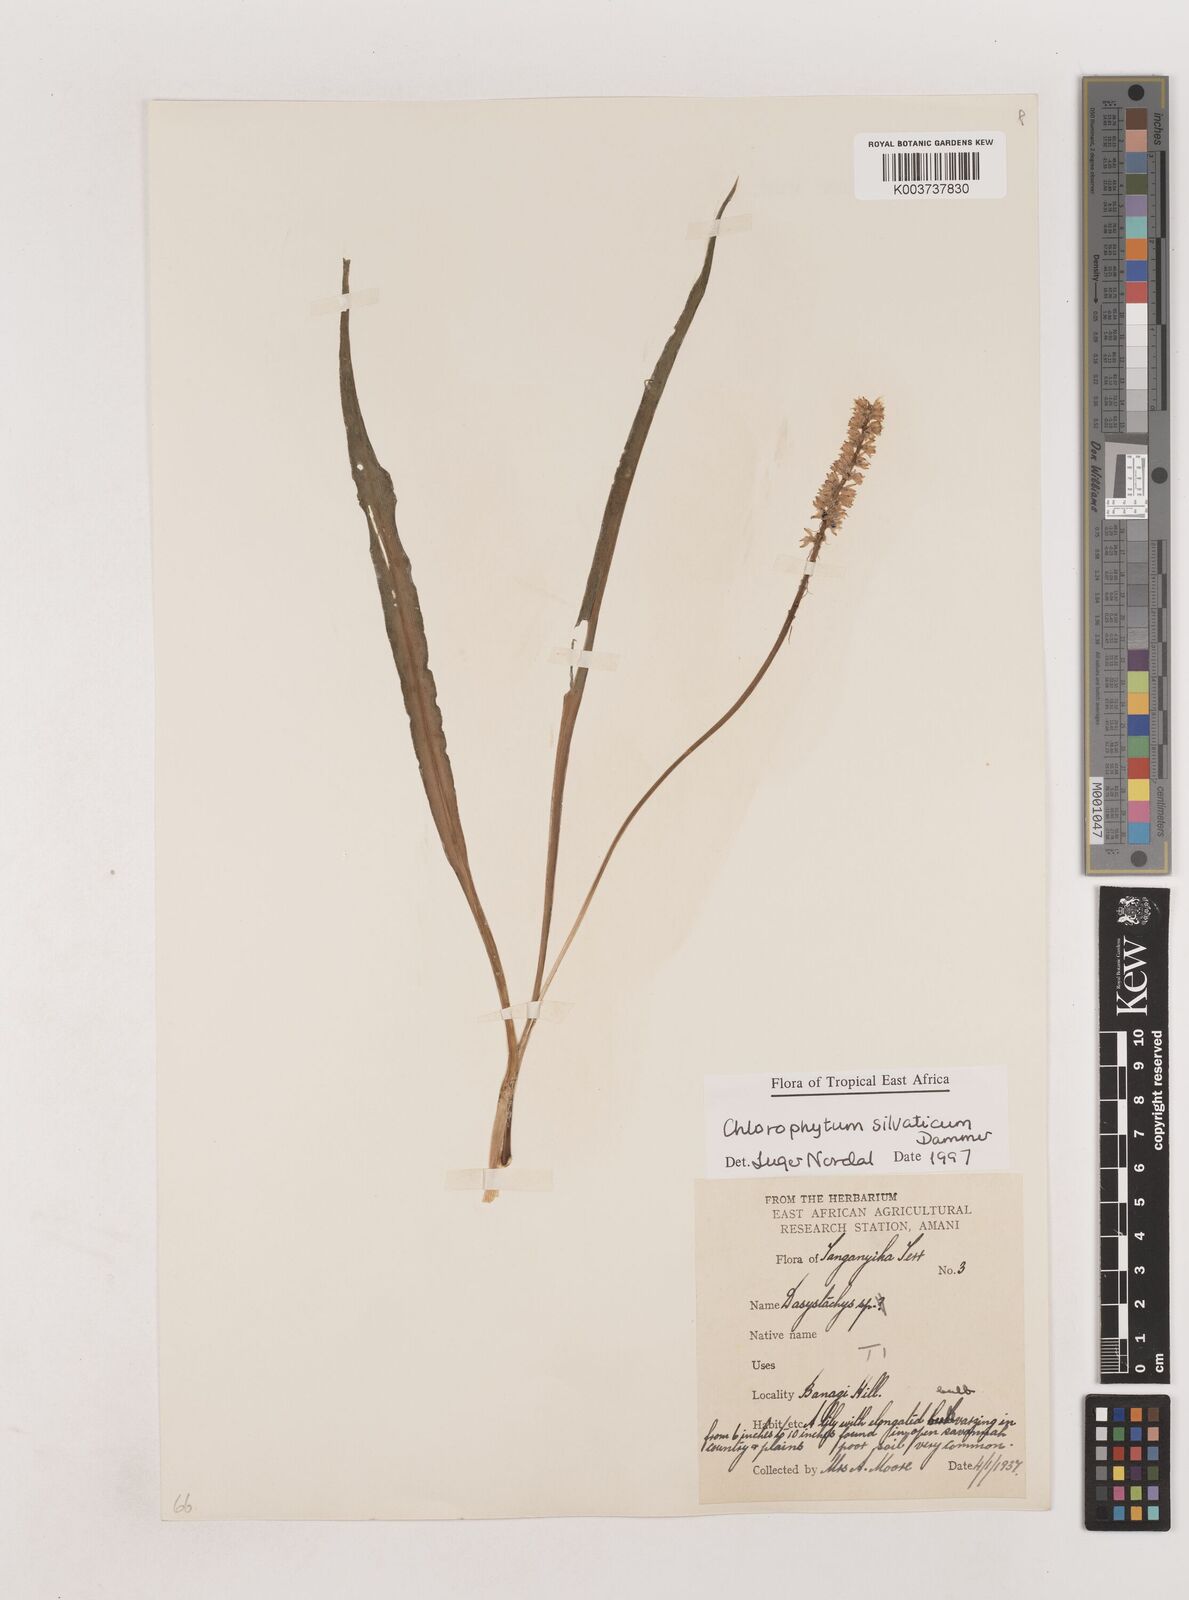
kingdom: Plantae
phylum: Tracheophyta
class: Liliopsida
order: Asparagales
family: Asparagaceae
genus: Chlorophytum
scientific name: Chlorophytum africanum
